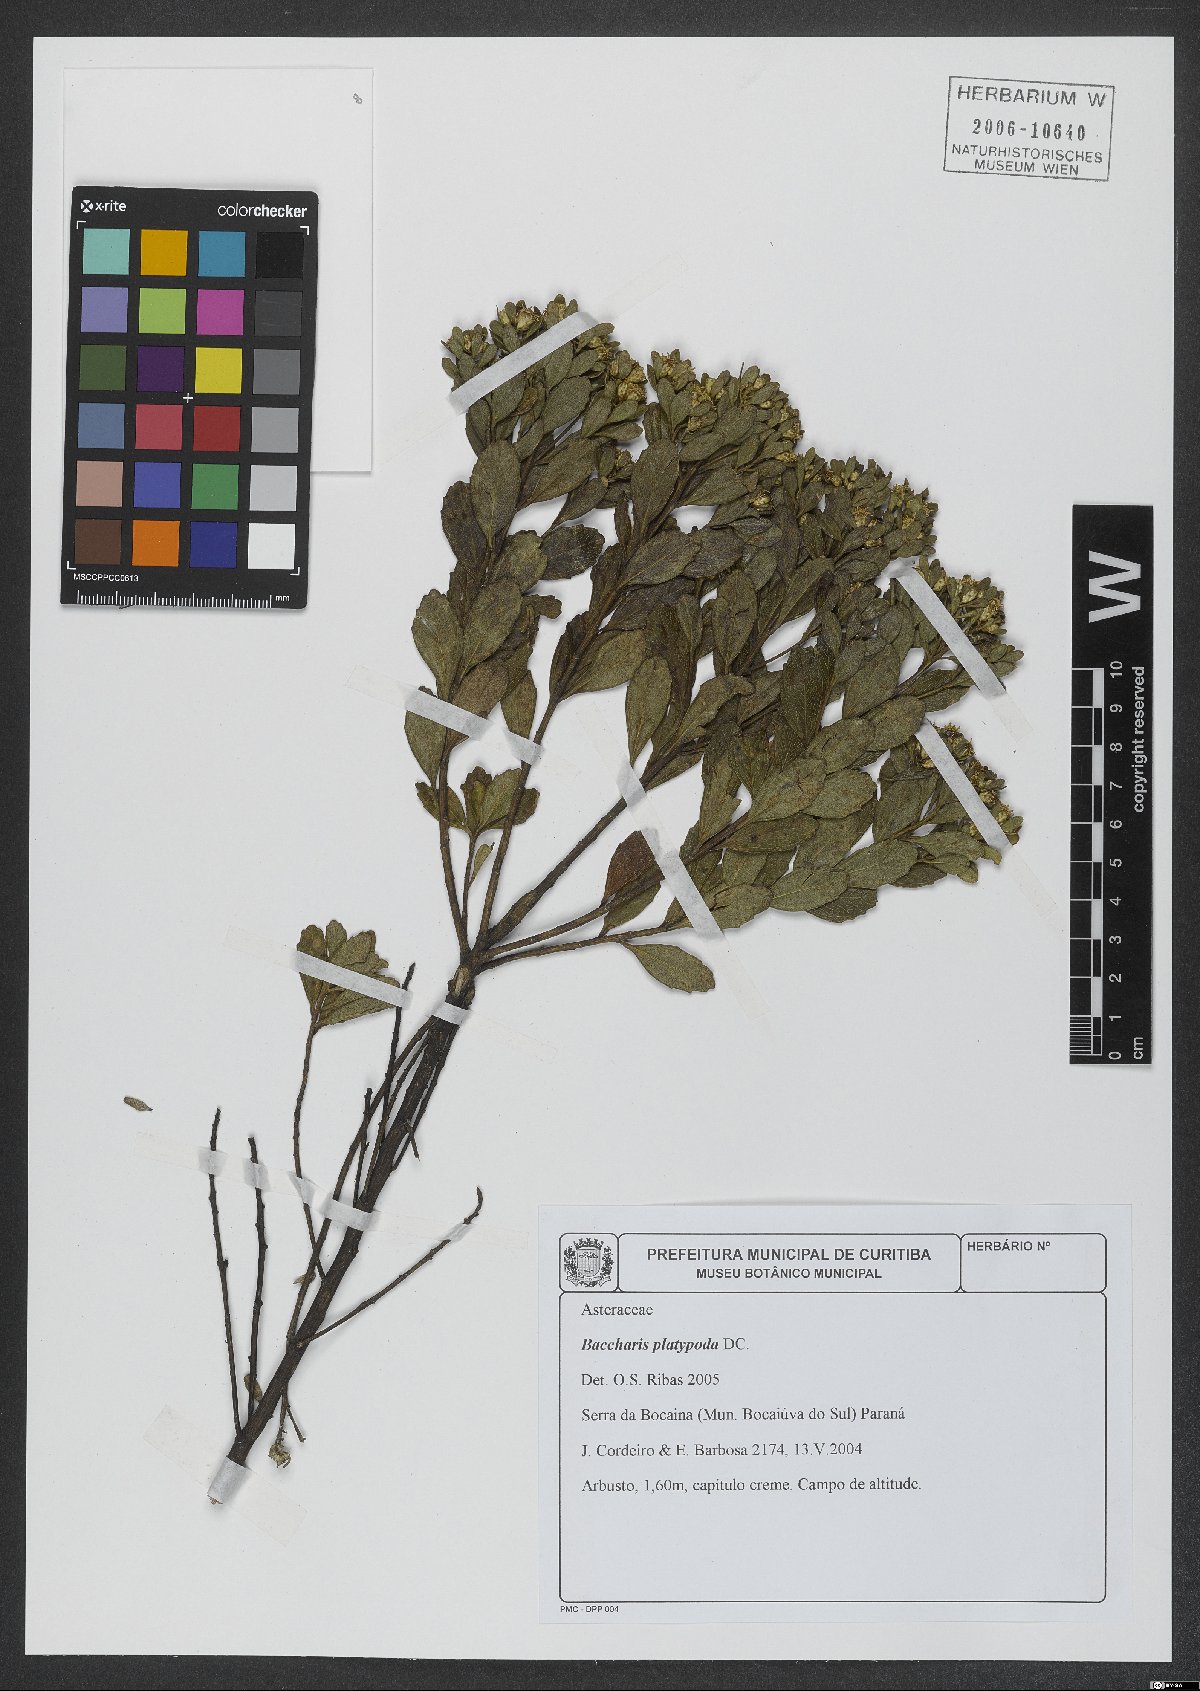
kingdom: Plantae
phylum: Tracheophyta
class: Magnoliopsida
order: Asterales
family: Asteraceae
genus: Baccharis
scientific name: Baccharis platypoda
